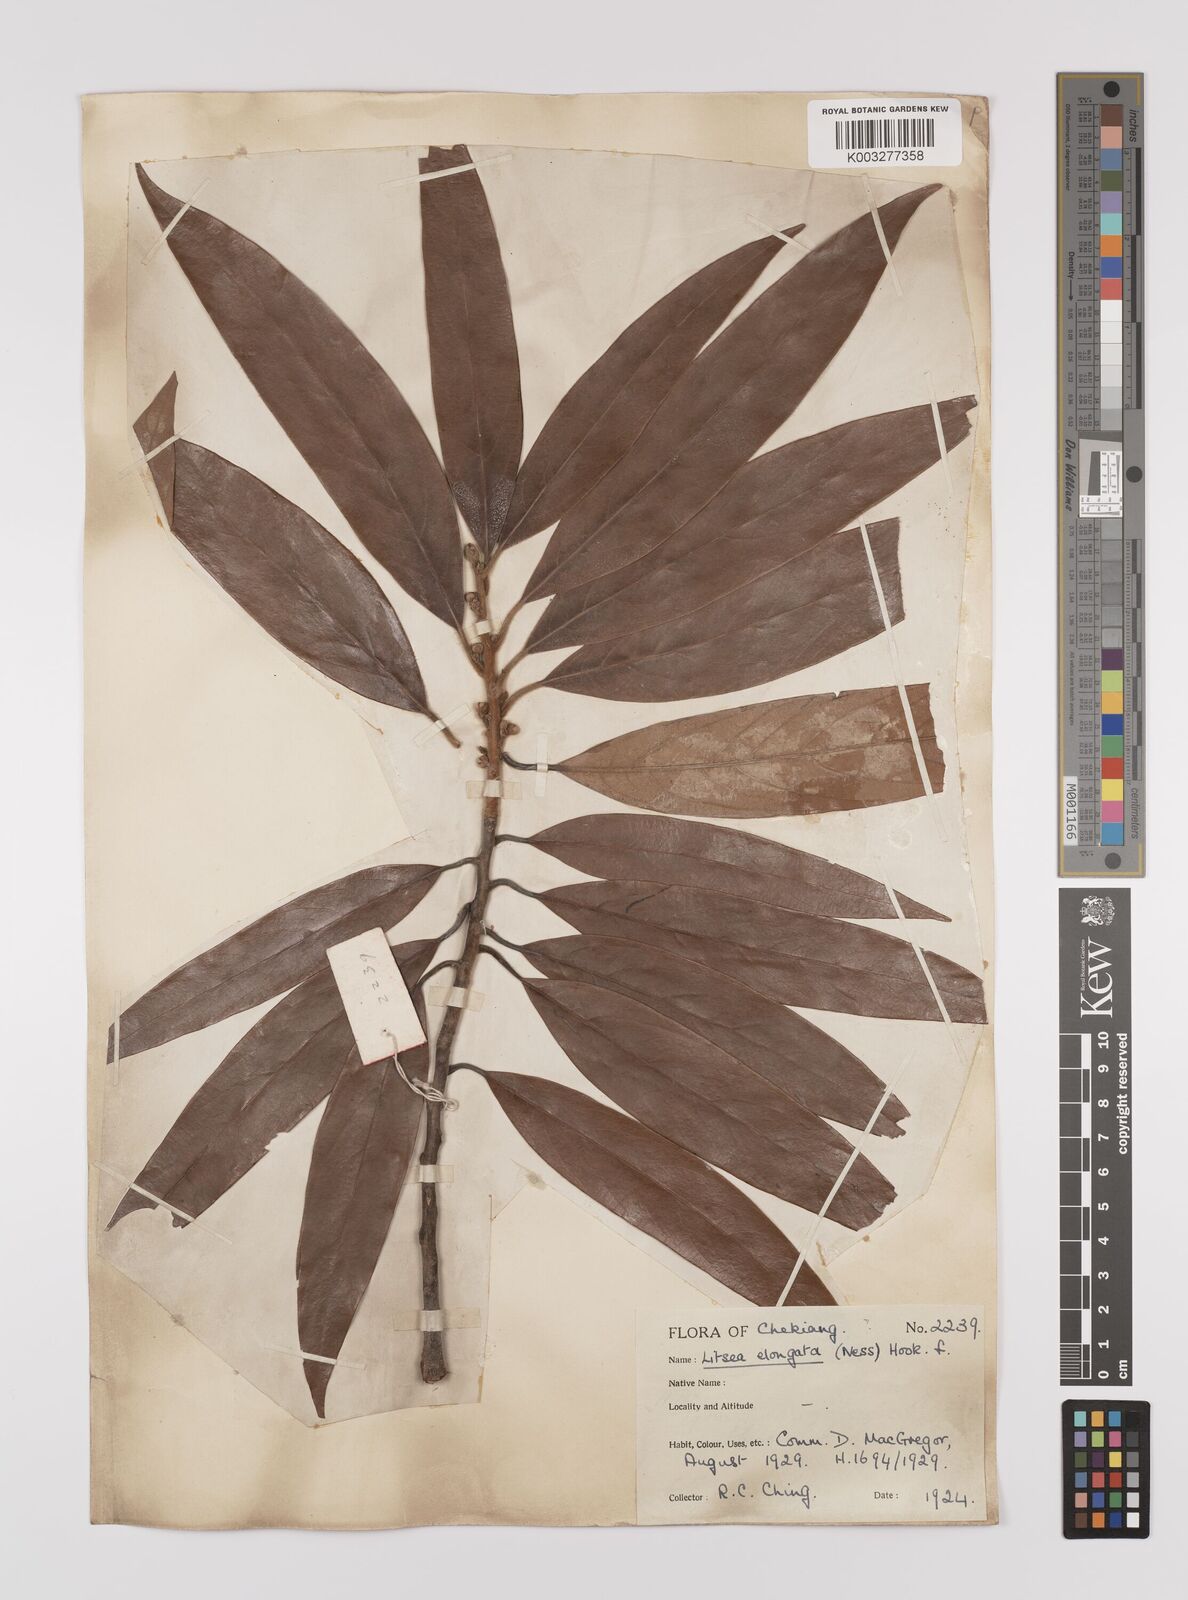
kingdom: Plantae
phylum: Tracheophyta
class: Magnoliopsida
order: Laurales
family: Lauraceae
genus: Litsea
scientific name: Litsea elongata
